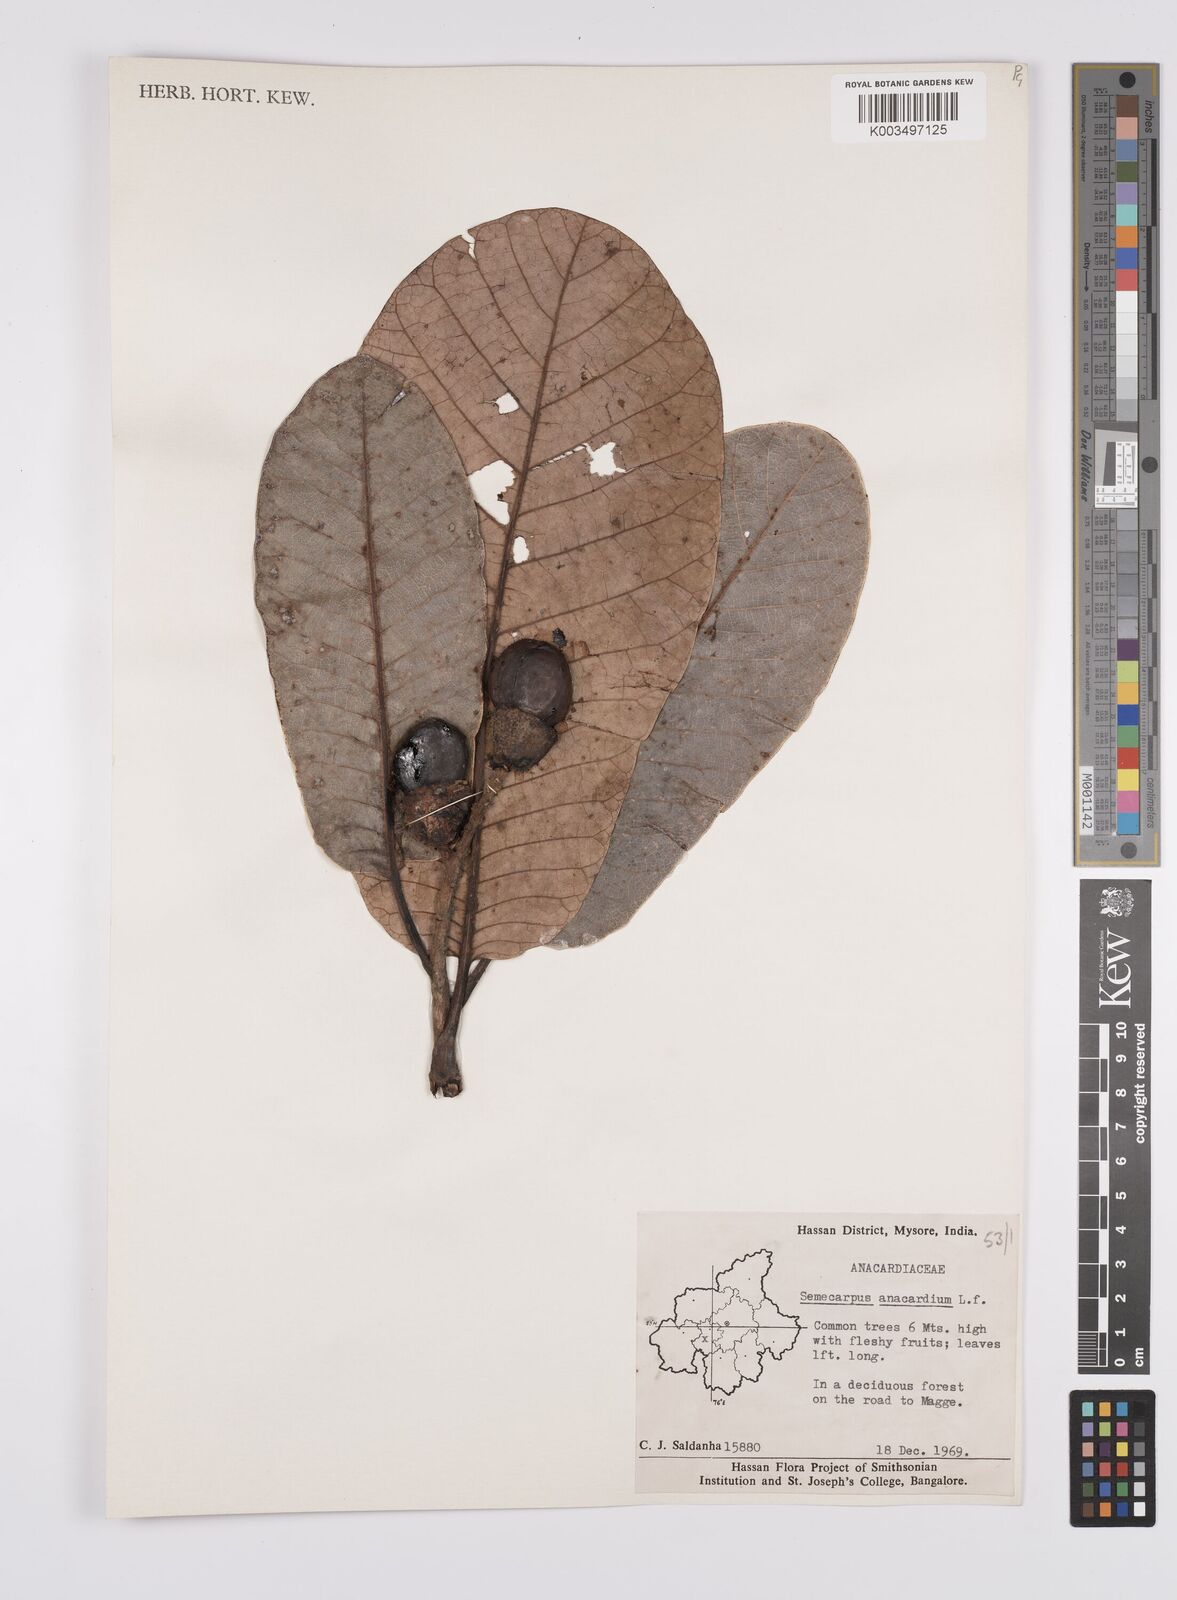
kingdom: Plantae
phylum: Tracheophyta
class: Magnoliopsida
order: Sapindales
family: Anacardiaceae
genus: Semecarpus
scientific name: Semecarpus anacardium
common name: Marking nut-tree
